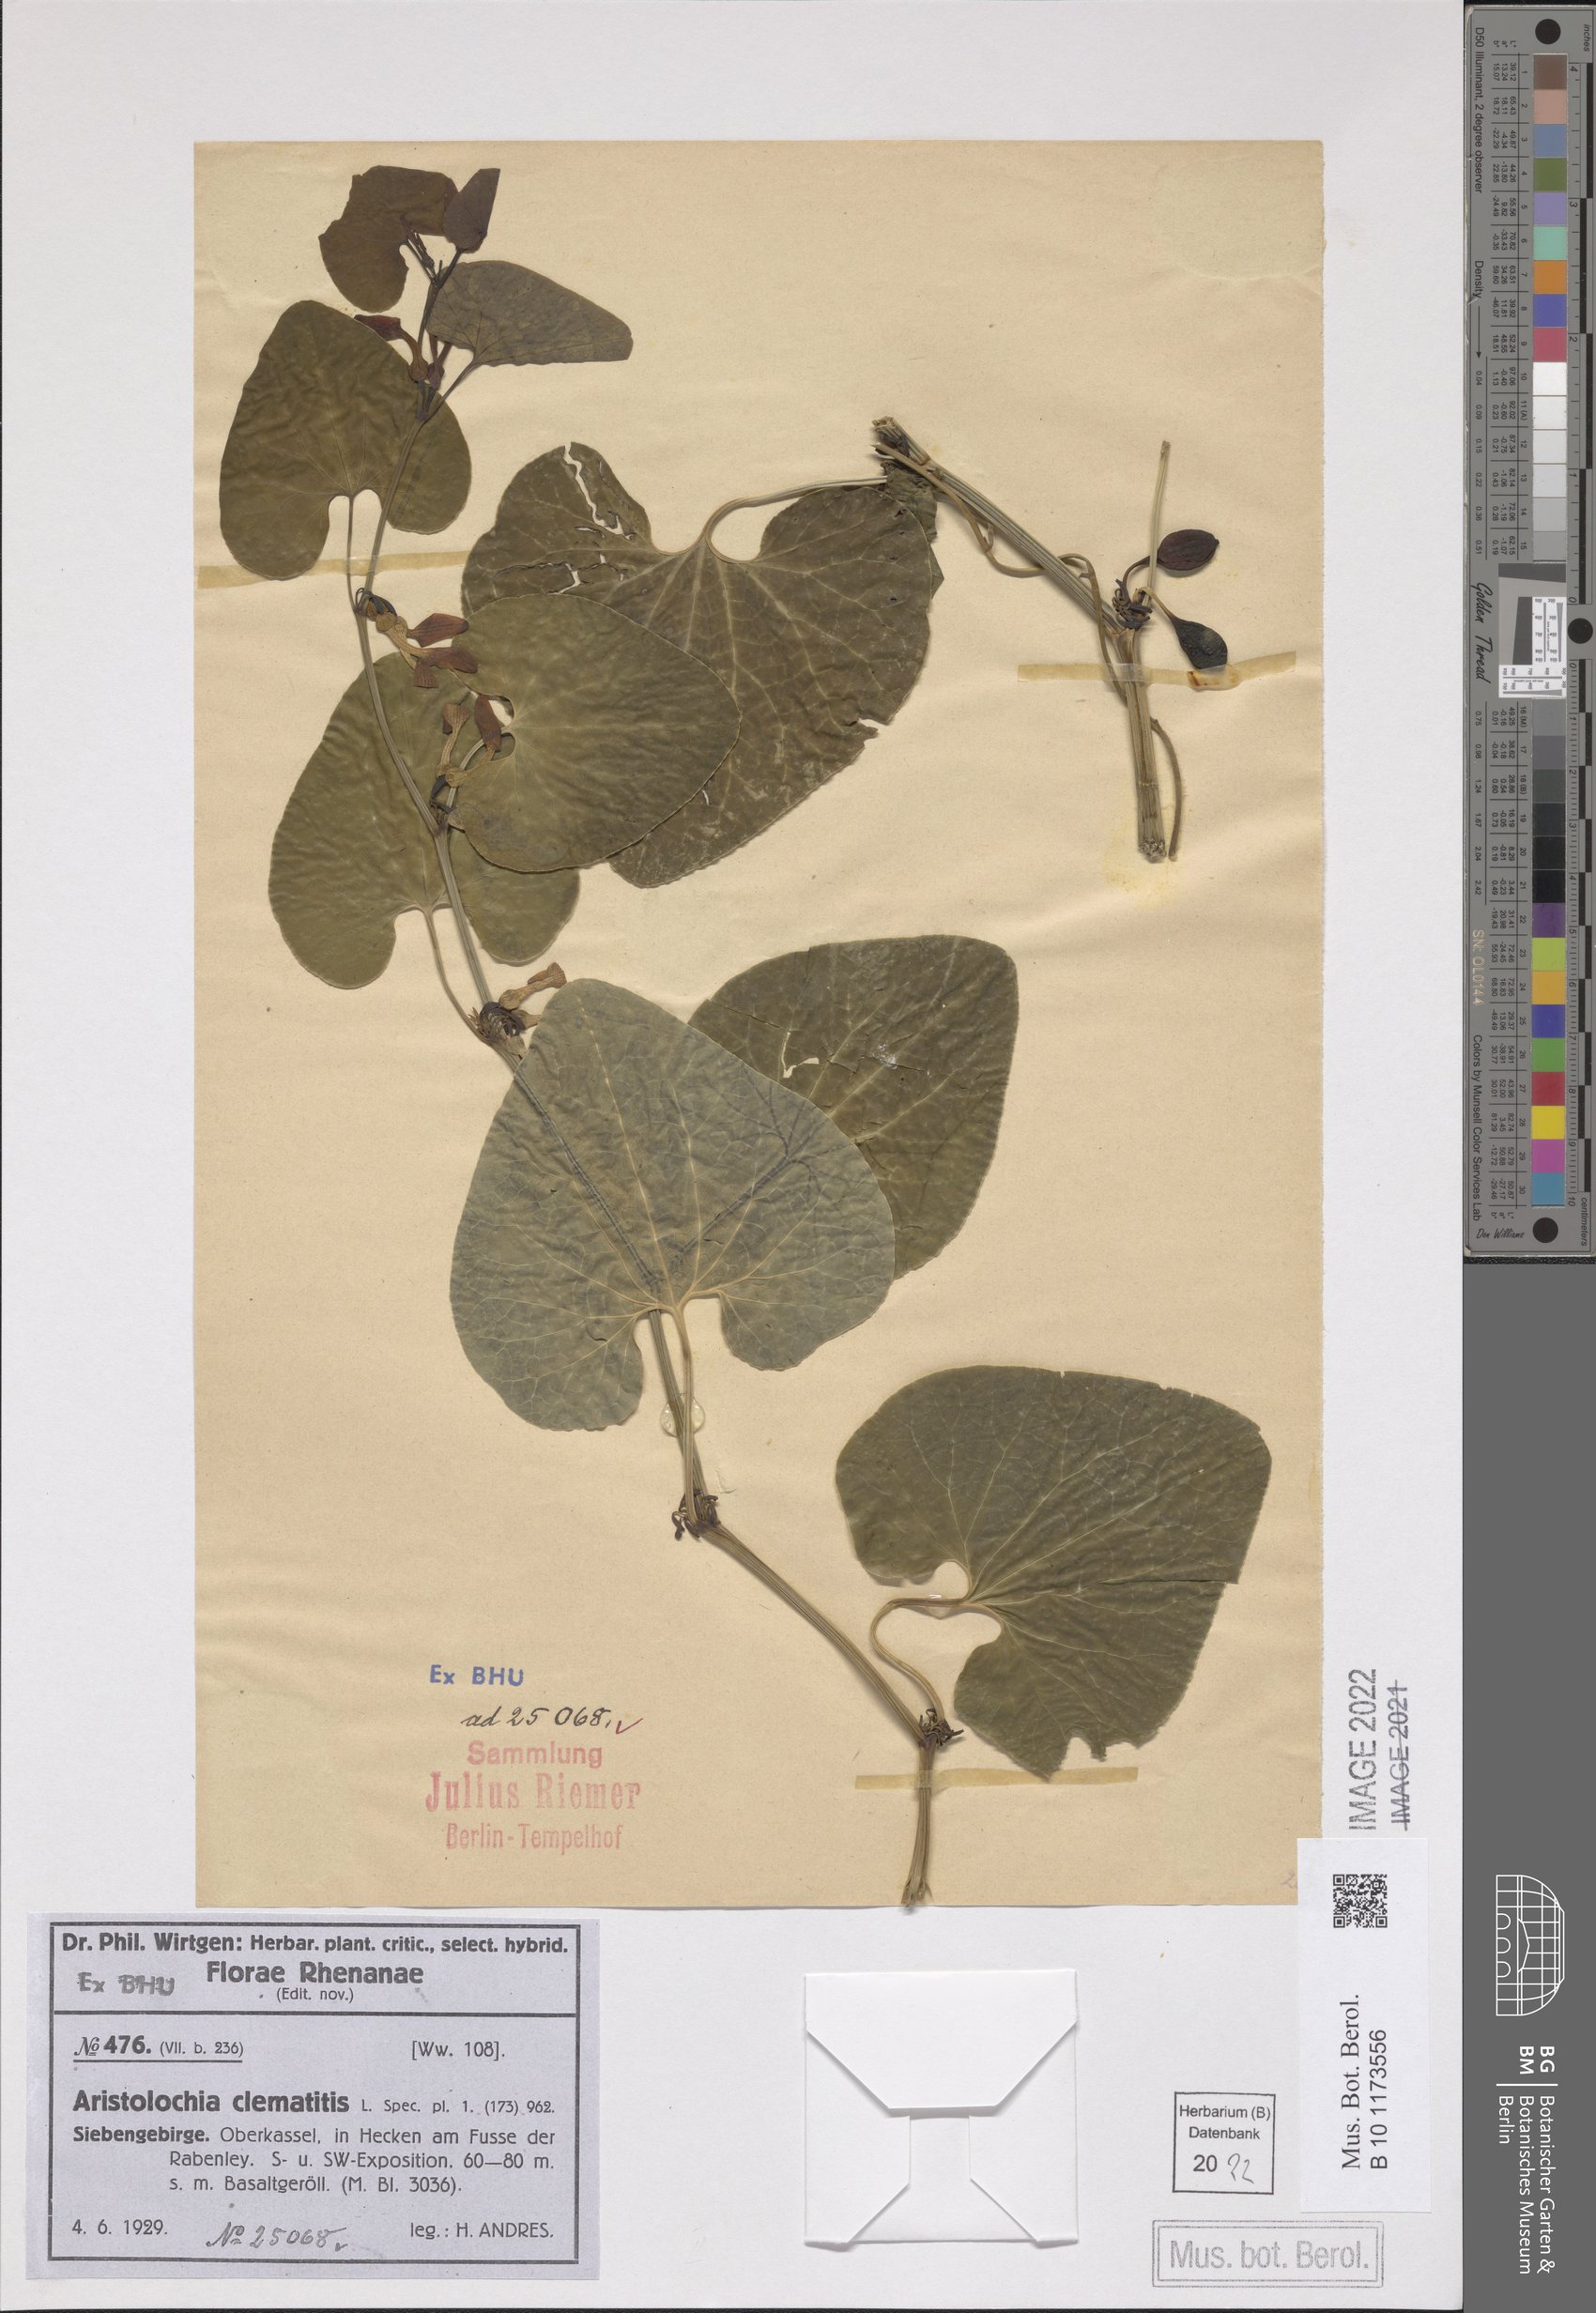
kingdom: Plantae
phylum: Tracheophyta
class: Magnoliopsida
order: Piperales
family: Aristolochiaceae
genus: Aristolochia
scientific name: Aristolochia clematitis
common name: Birthwort
